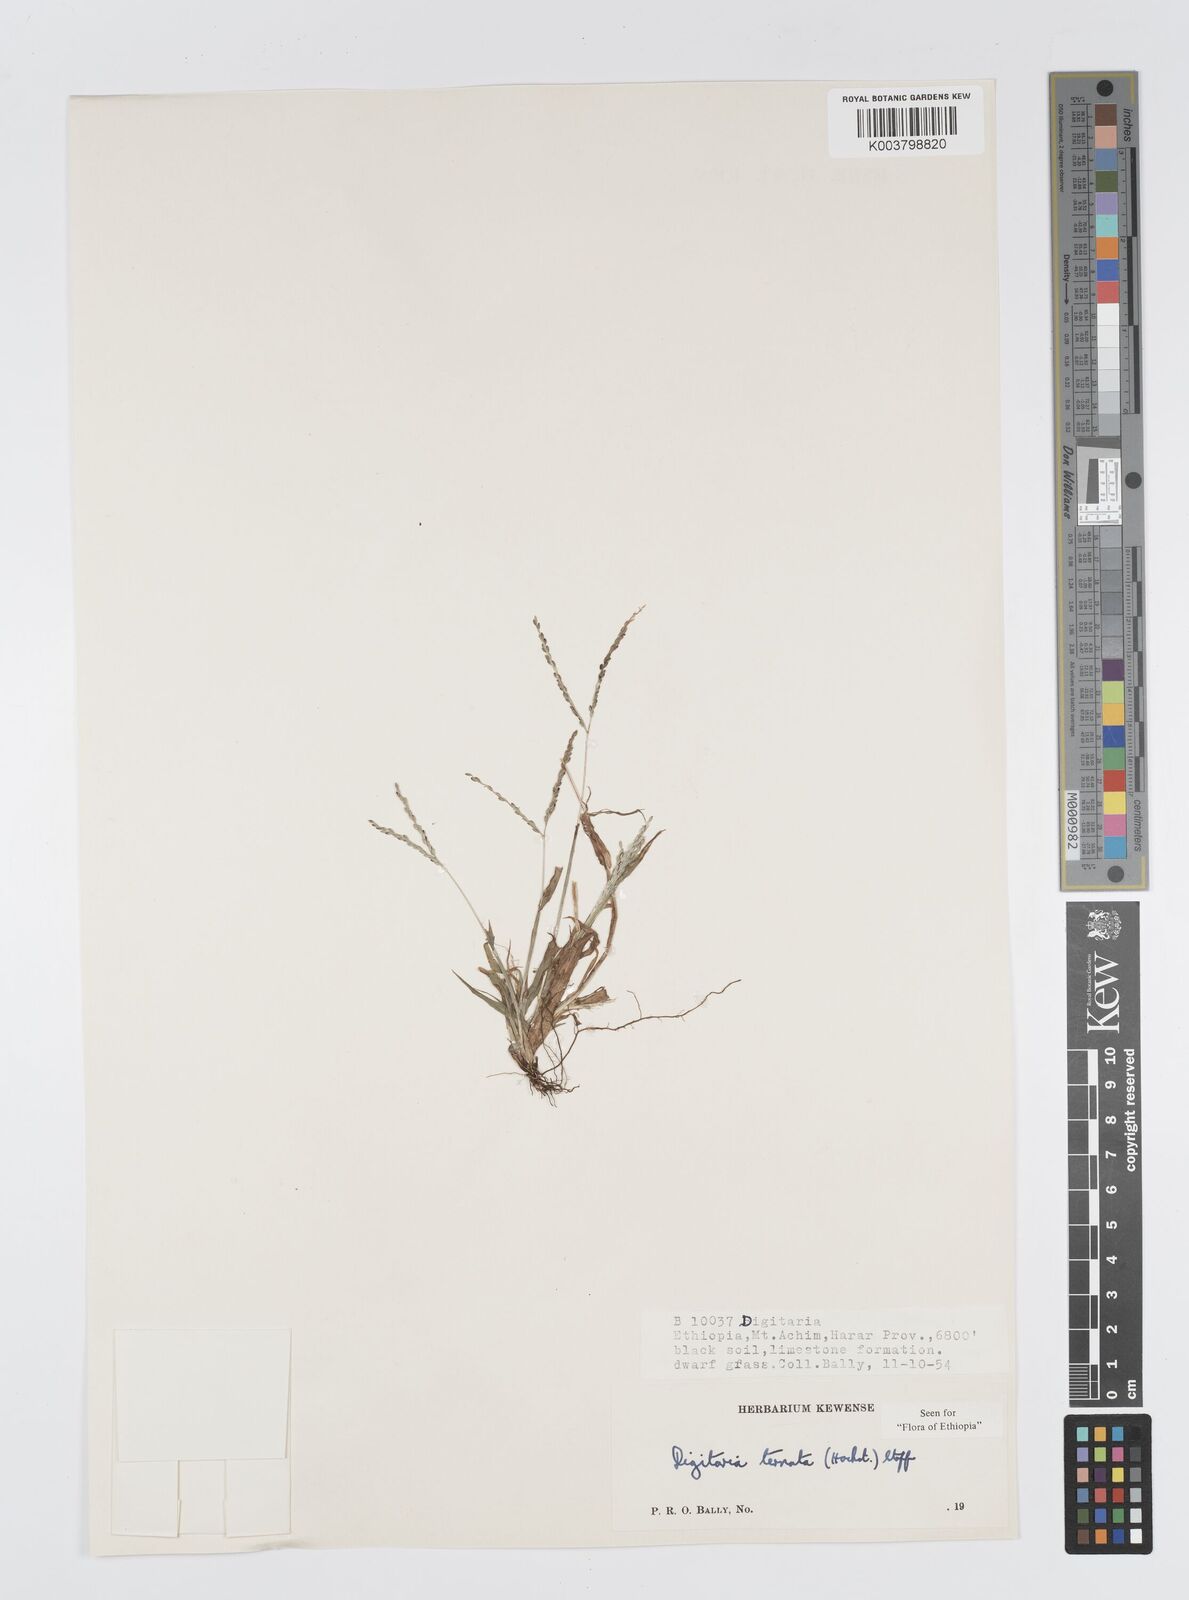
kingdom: Plantae
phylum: Tracheophyta
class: Liliopsida
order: Poales
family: Poaceae
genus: Digitaria
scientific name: Digitaria ternata
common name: Blackseed crabgrass
